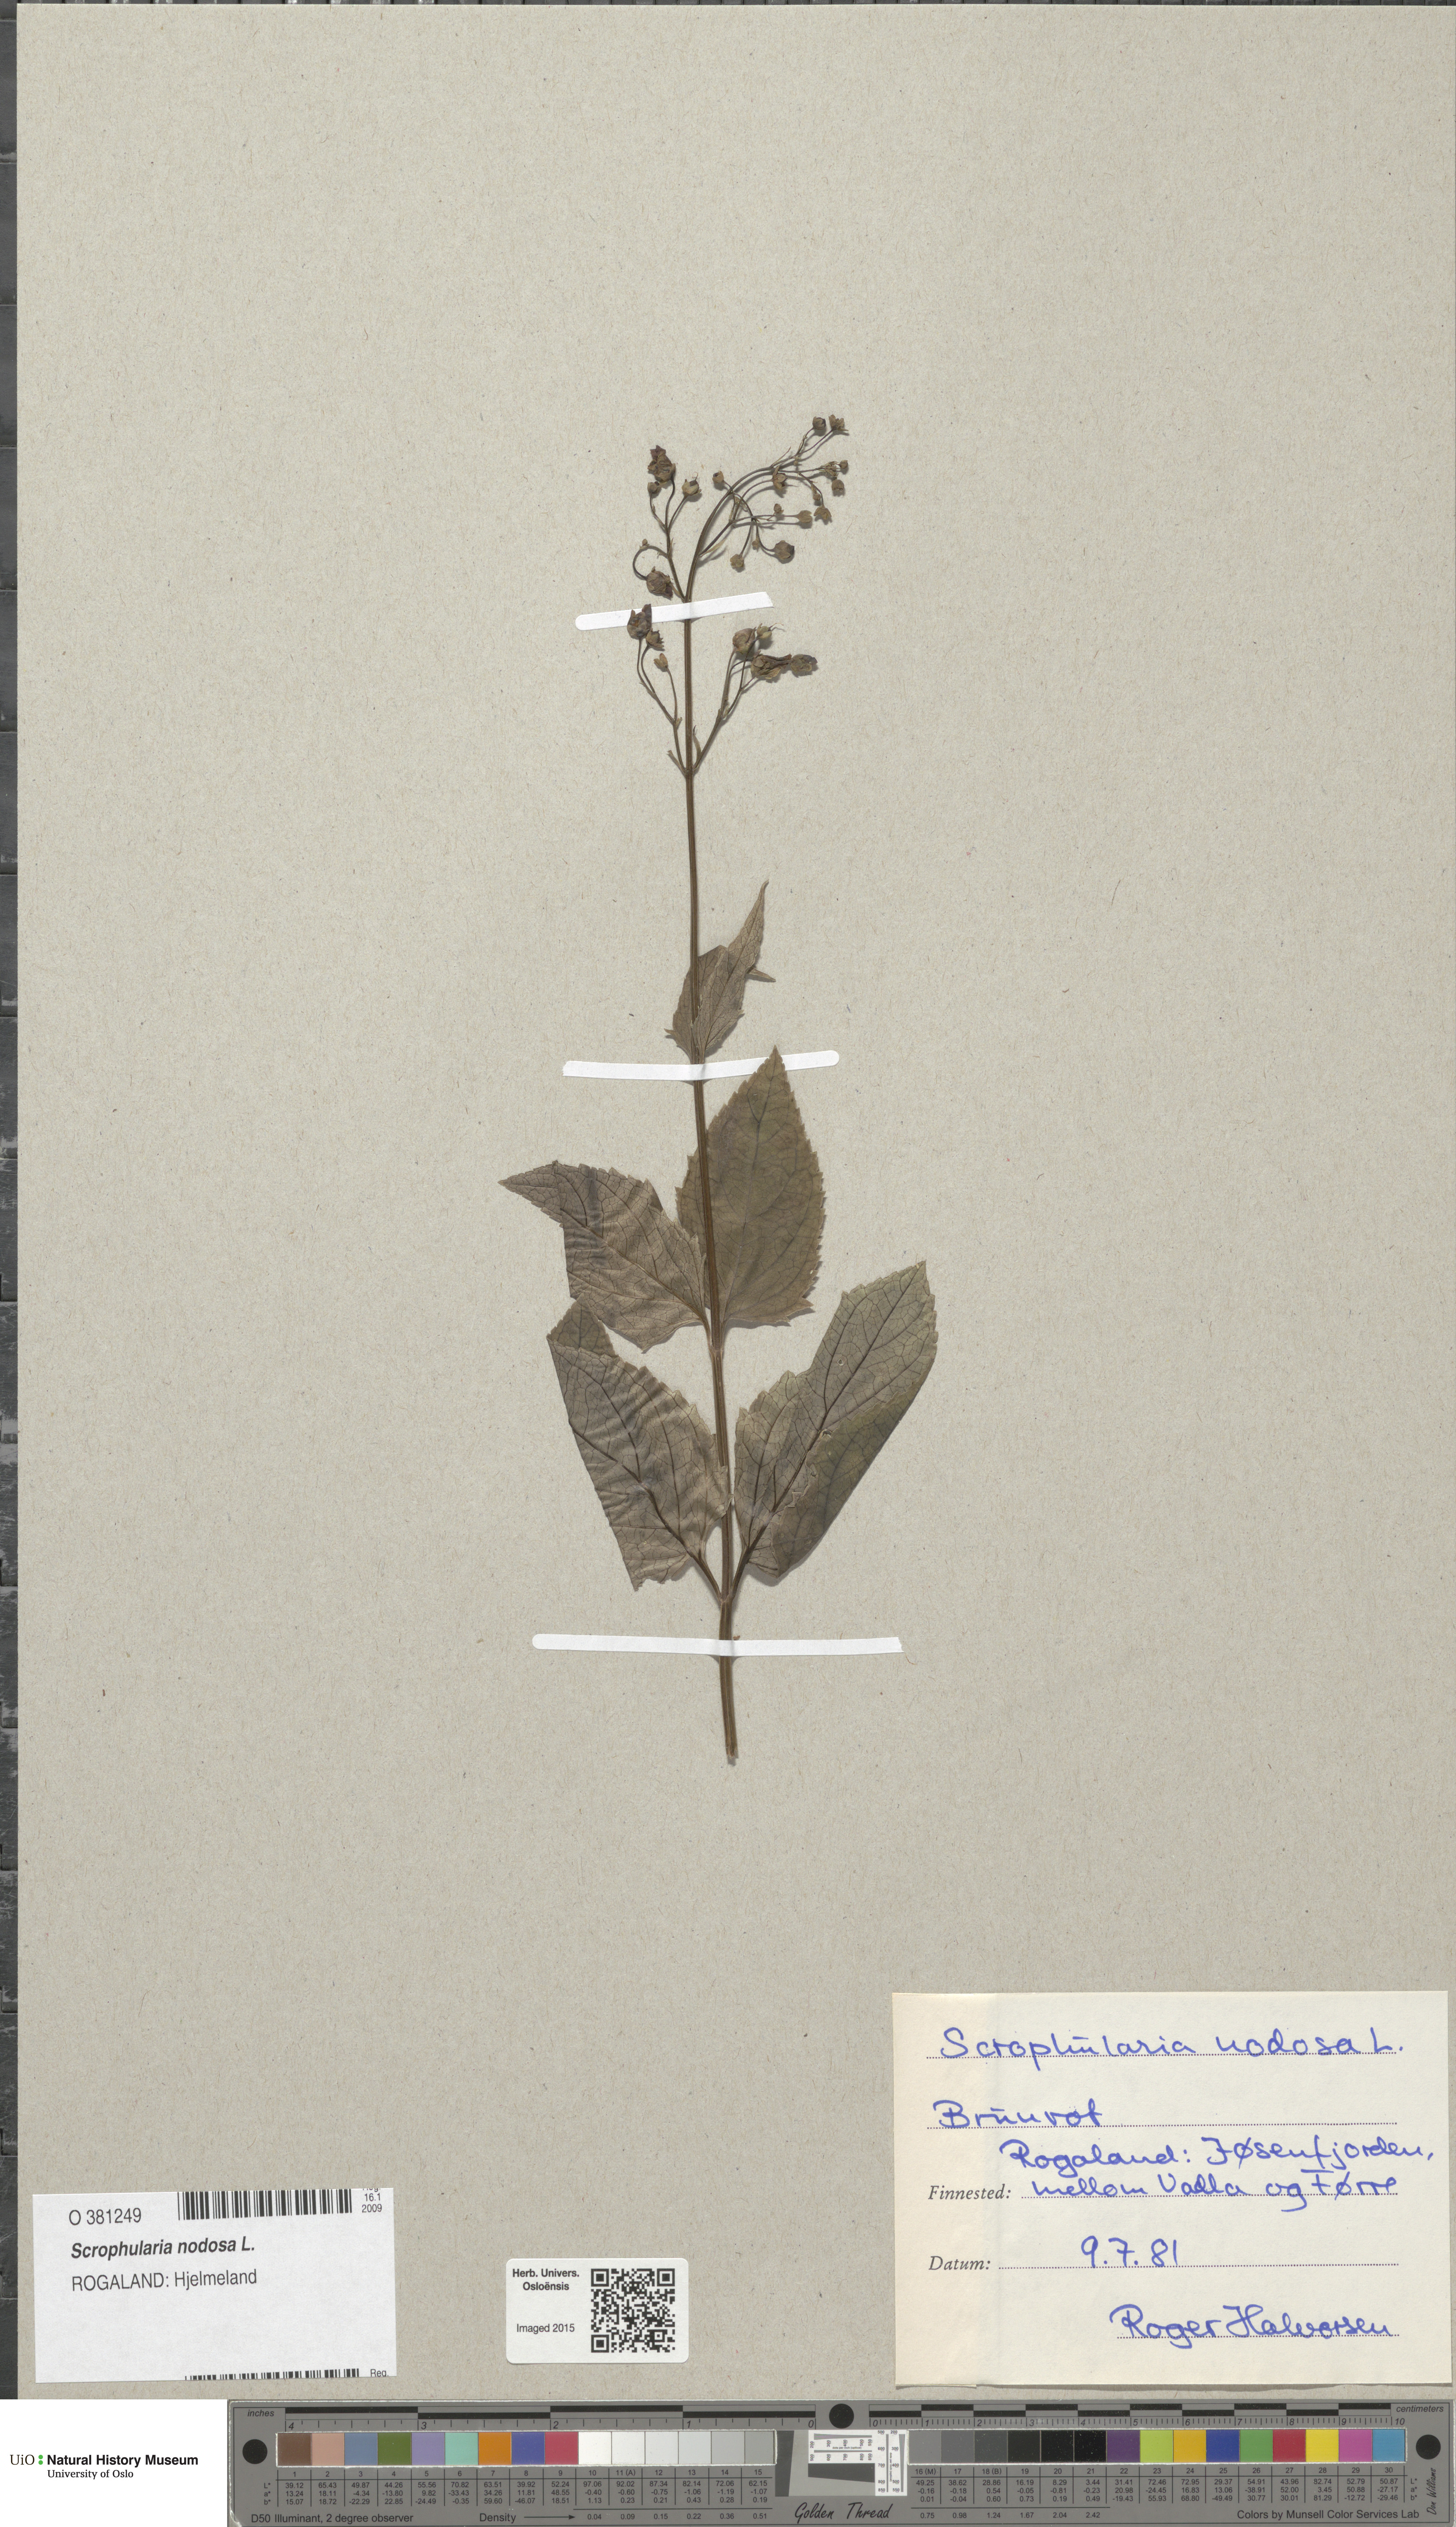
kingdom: Plantae
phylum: Tracheophyta
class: Magnoliopsida
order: Lamiales
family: Scrophulariaceae
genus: Scrophularia
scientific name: Scrophularia nodosa
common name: Common figwort
